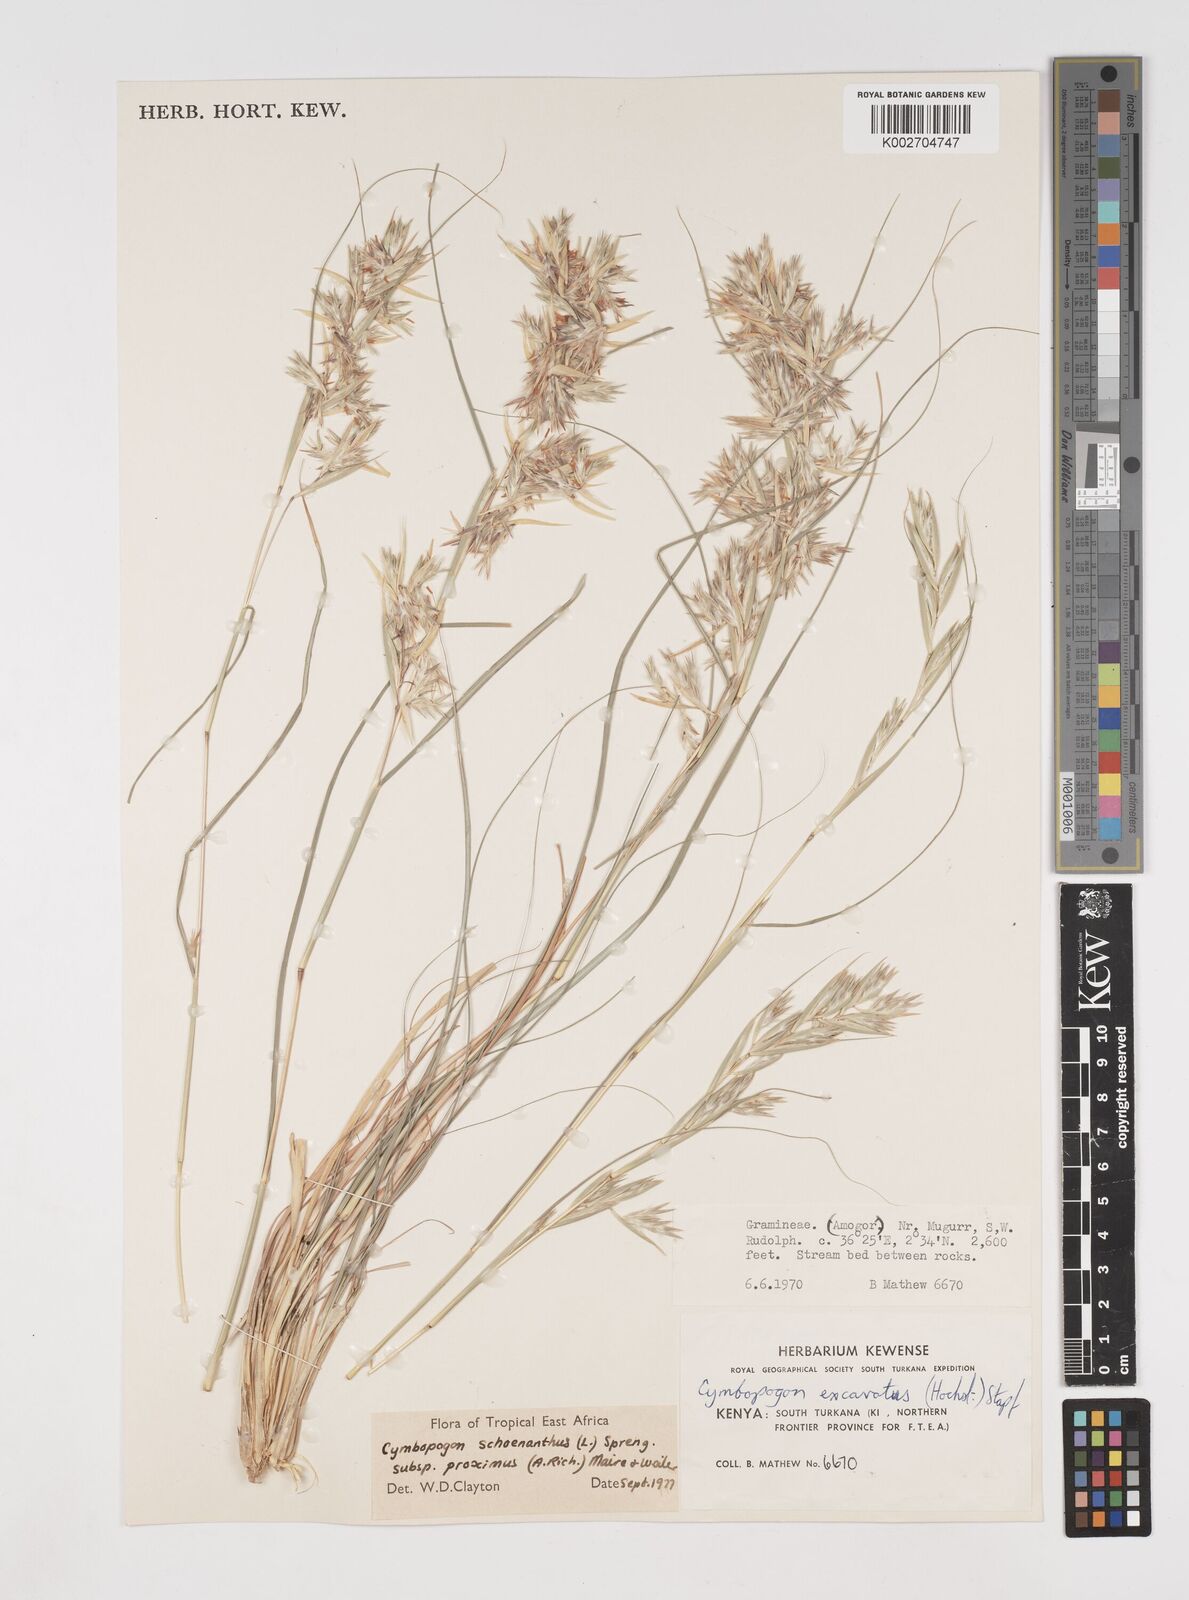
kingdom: Plantae
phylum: Tracheophyta
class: Liliopsida
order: Poales
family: Poaceae
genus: Cymbopogon
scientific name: Cymbopogon schoenanthus
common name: Geranium grass
